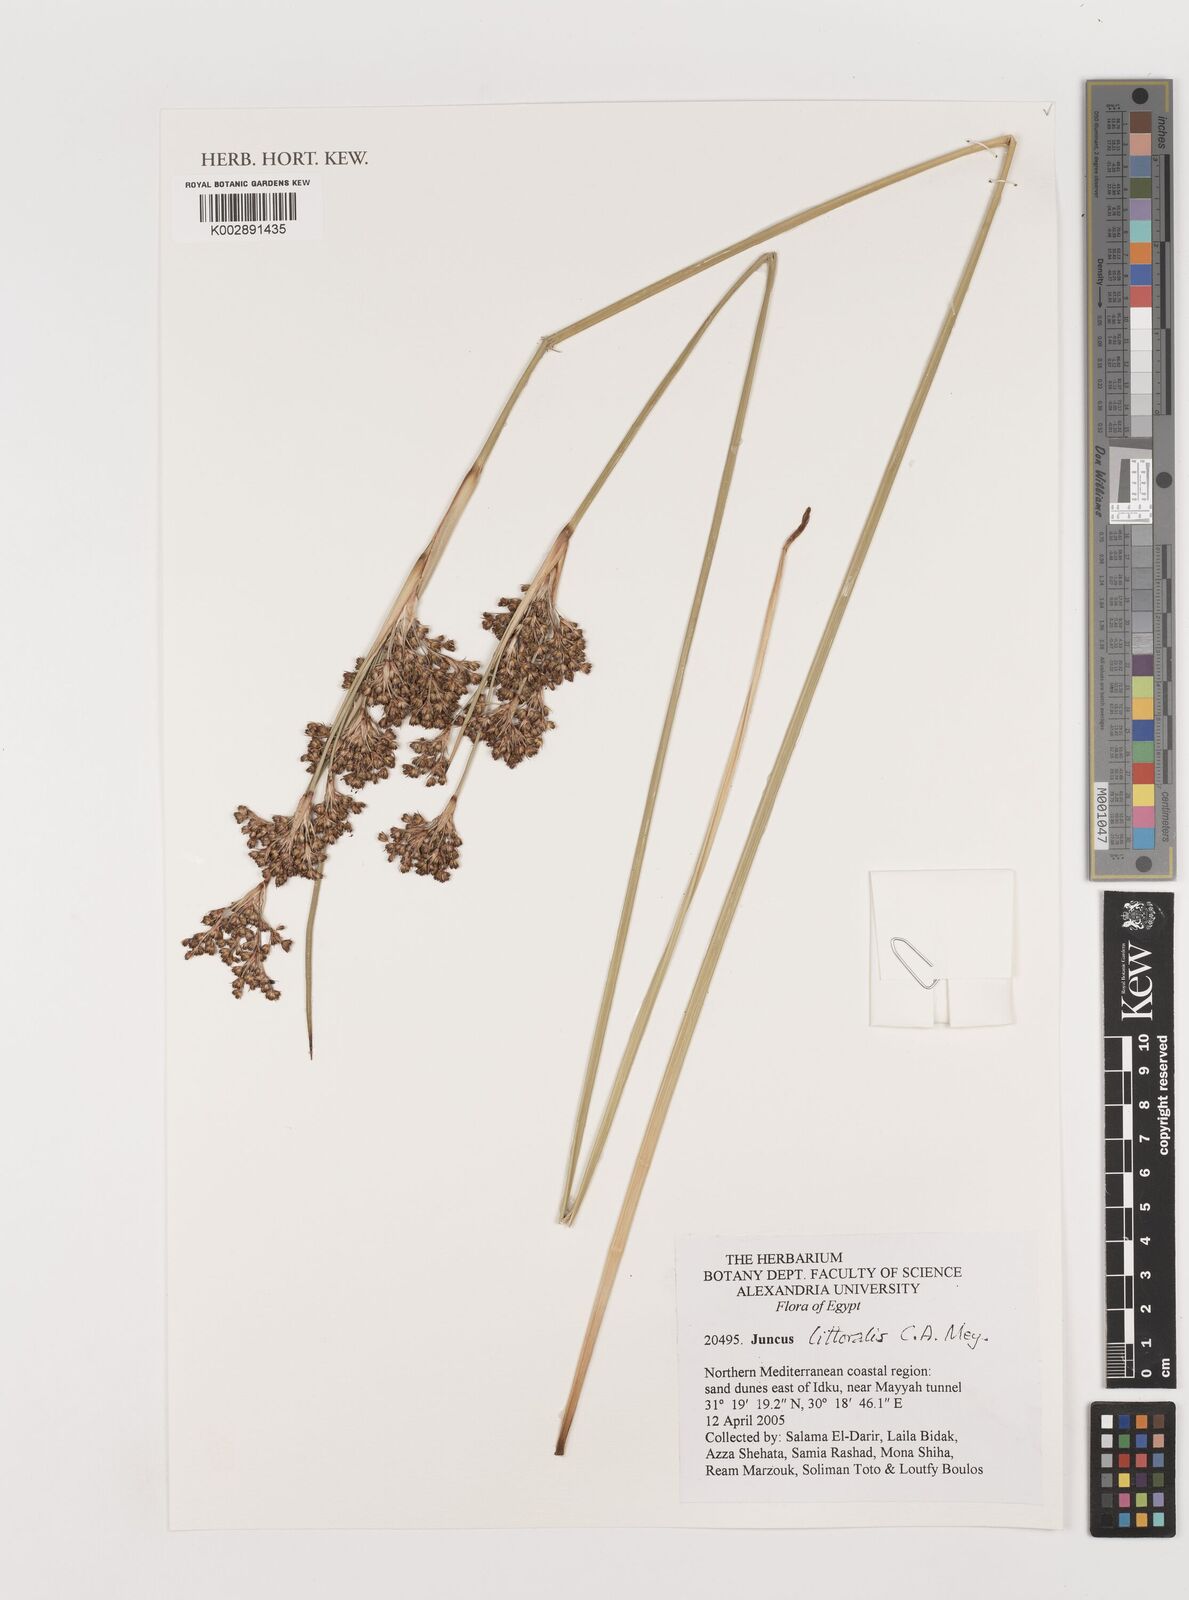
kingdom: Plantae
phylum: Tracheophyta
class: Liliopsida
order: Poales
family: Juncaceae
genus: Juncus
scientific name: Juncus littoralis
